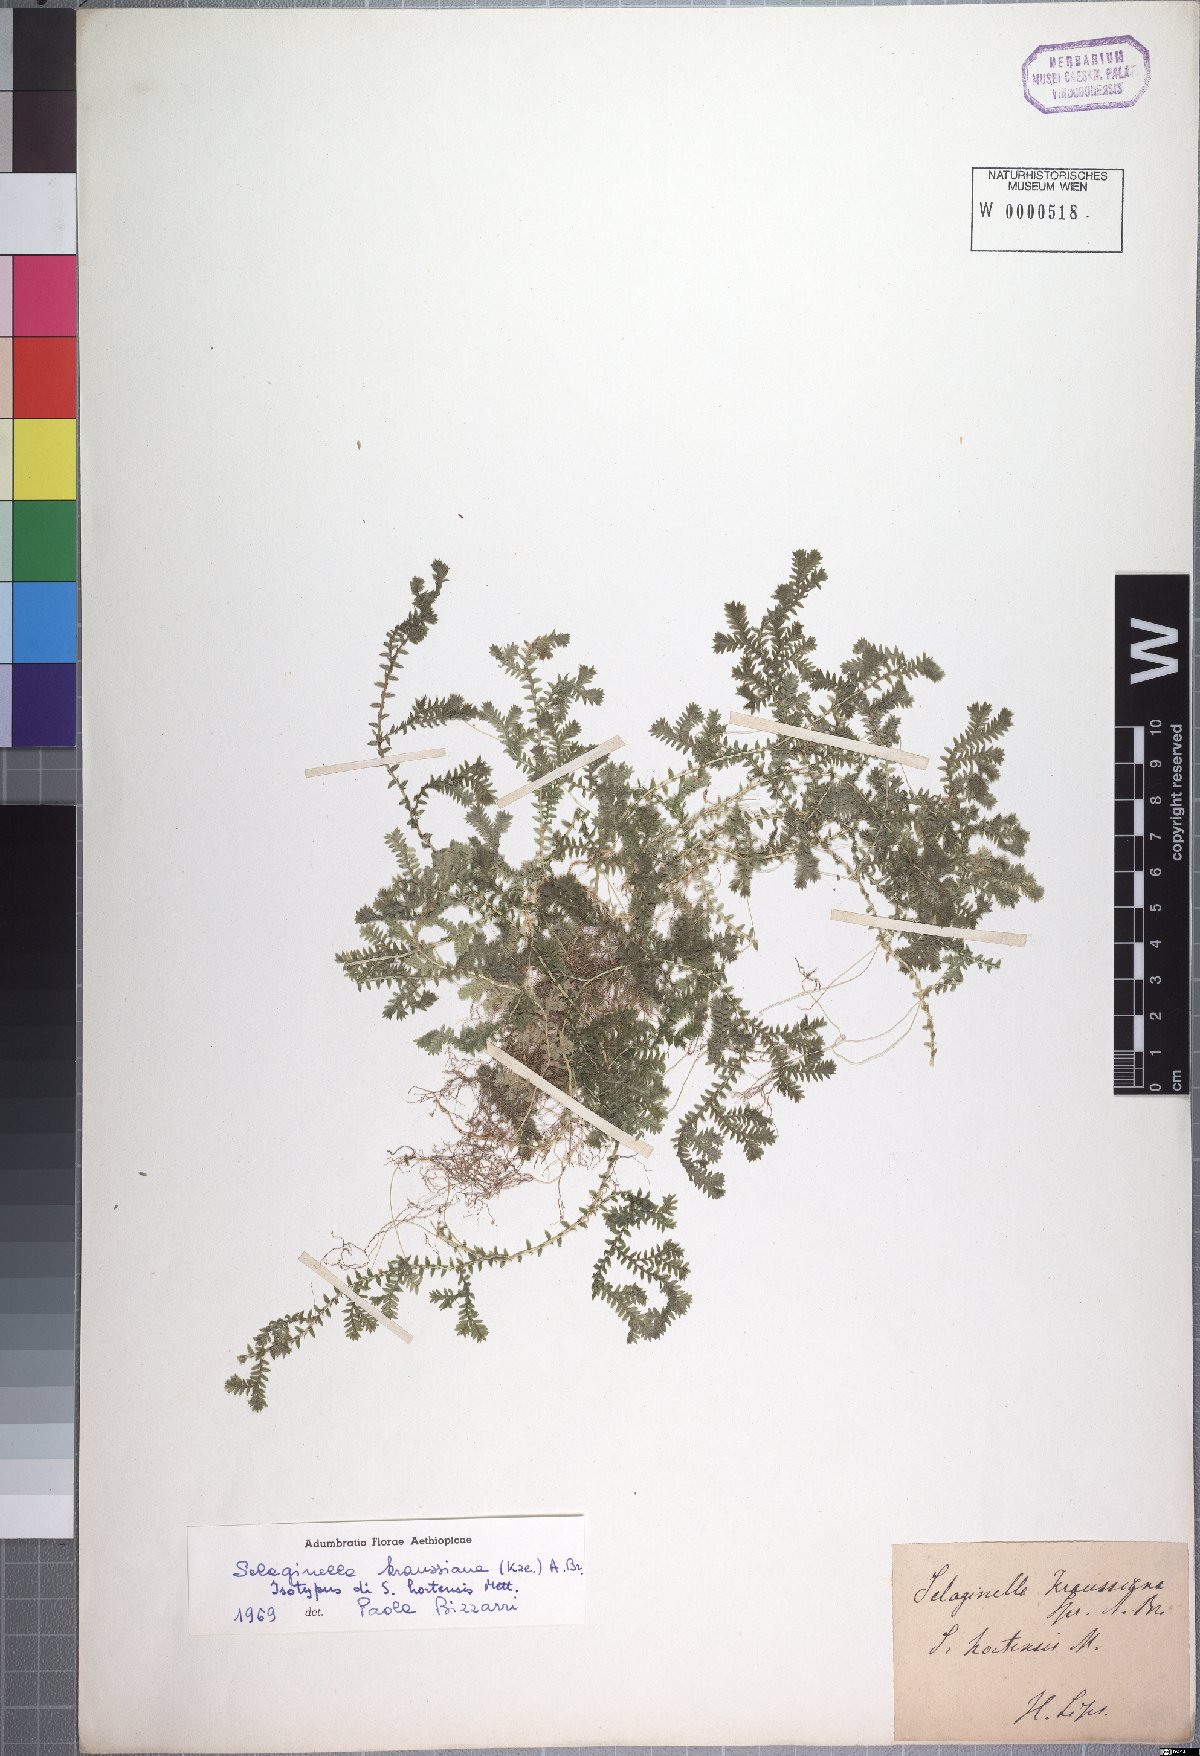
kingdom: Plantae
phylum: Tracheophyta
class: Lycopodiopsida
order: Selaginellales
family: Selaginellaceae
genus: Selaginella
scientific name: Selaginella kraussiana
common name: Krauss' spikemoss
